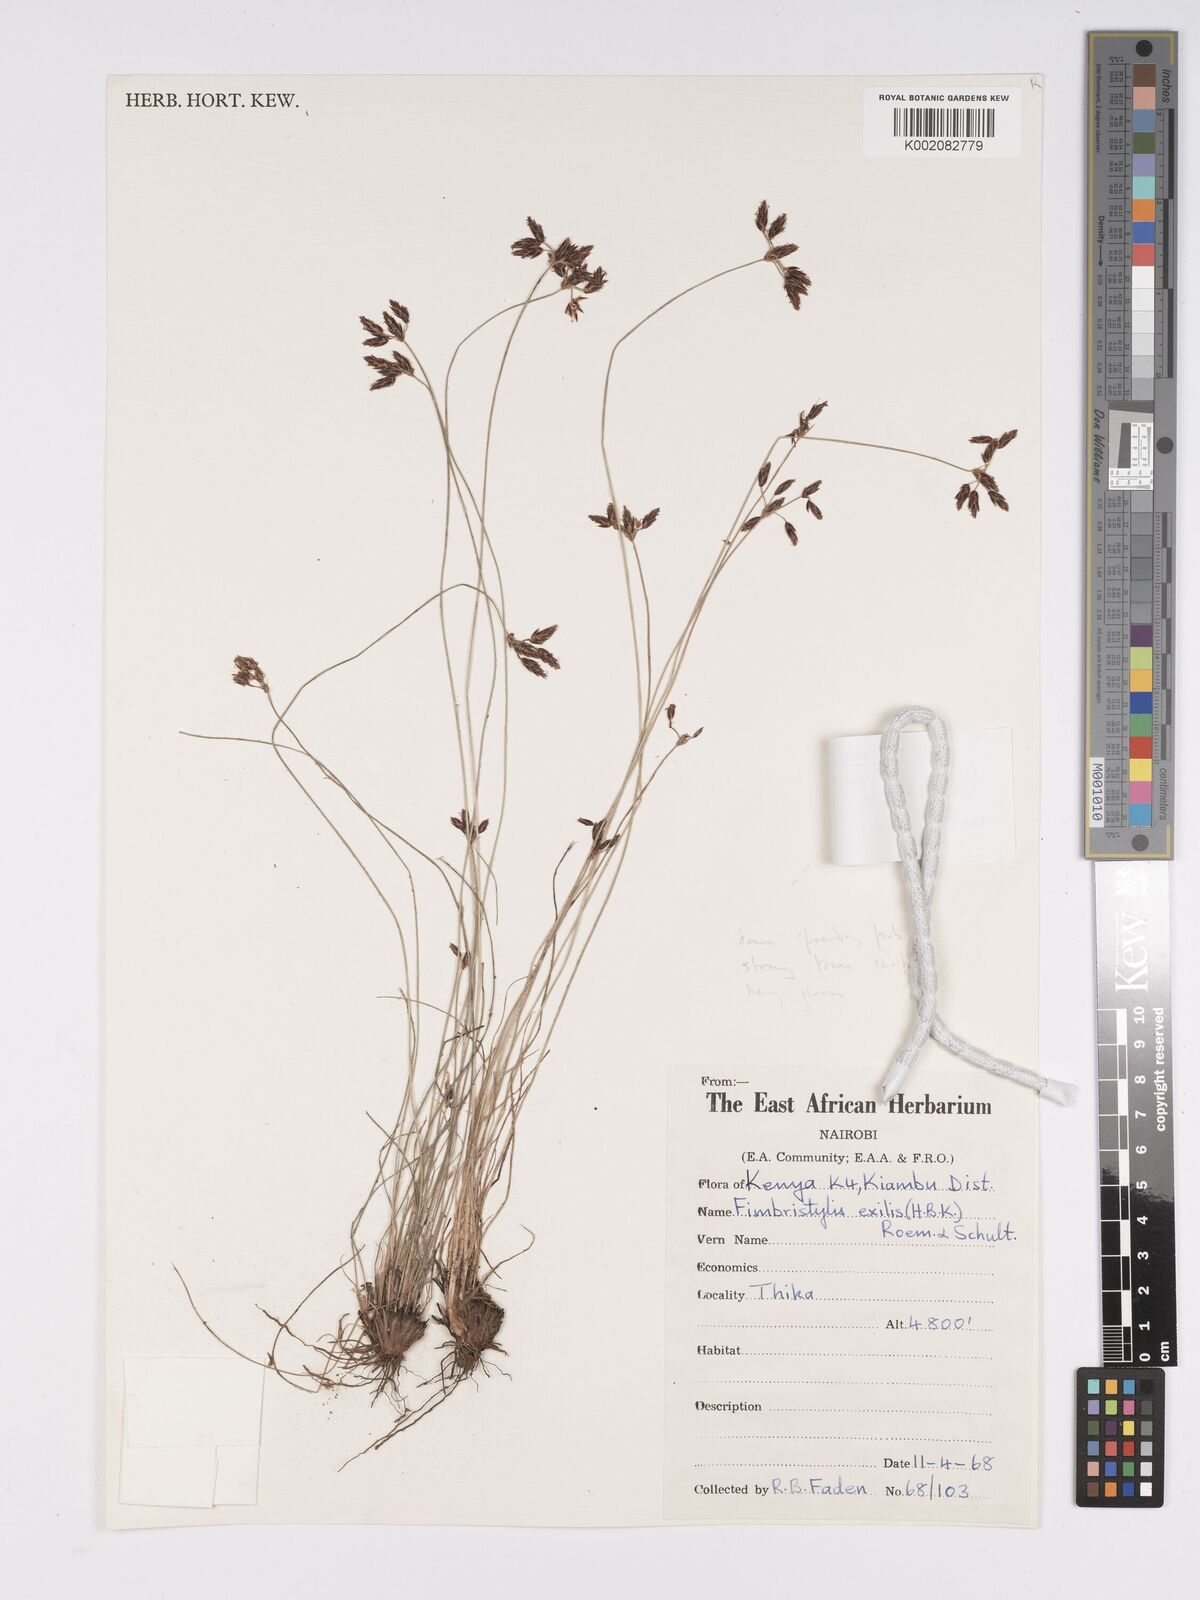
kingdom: Plantae
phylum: Tracheophyta
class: Liliopsida
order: Poales
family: Cyperaceae
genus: Bulbostylis
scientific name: Bulbostylis hispidula
